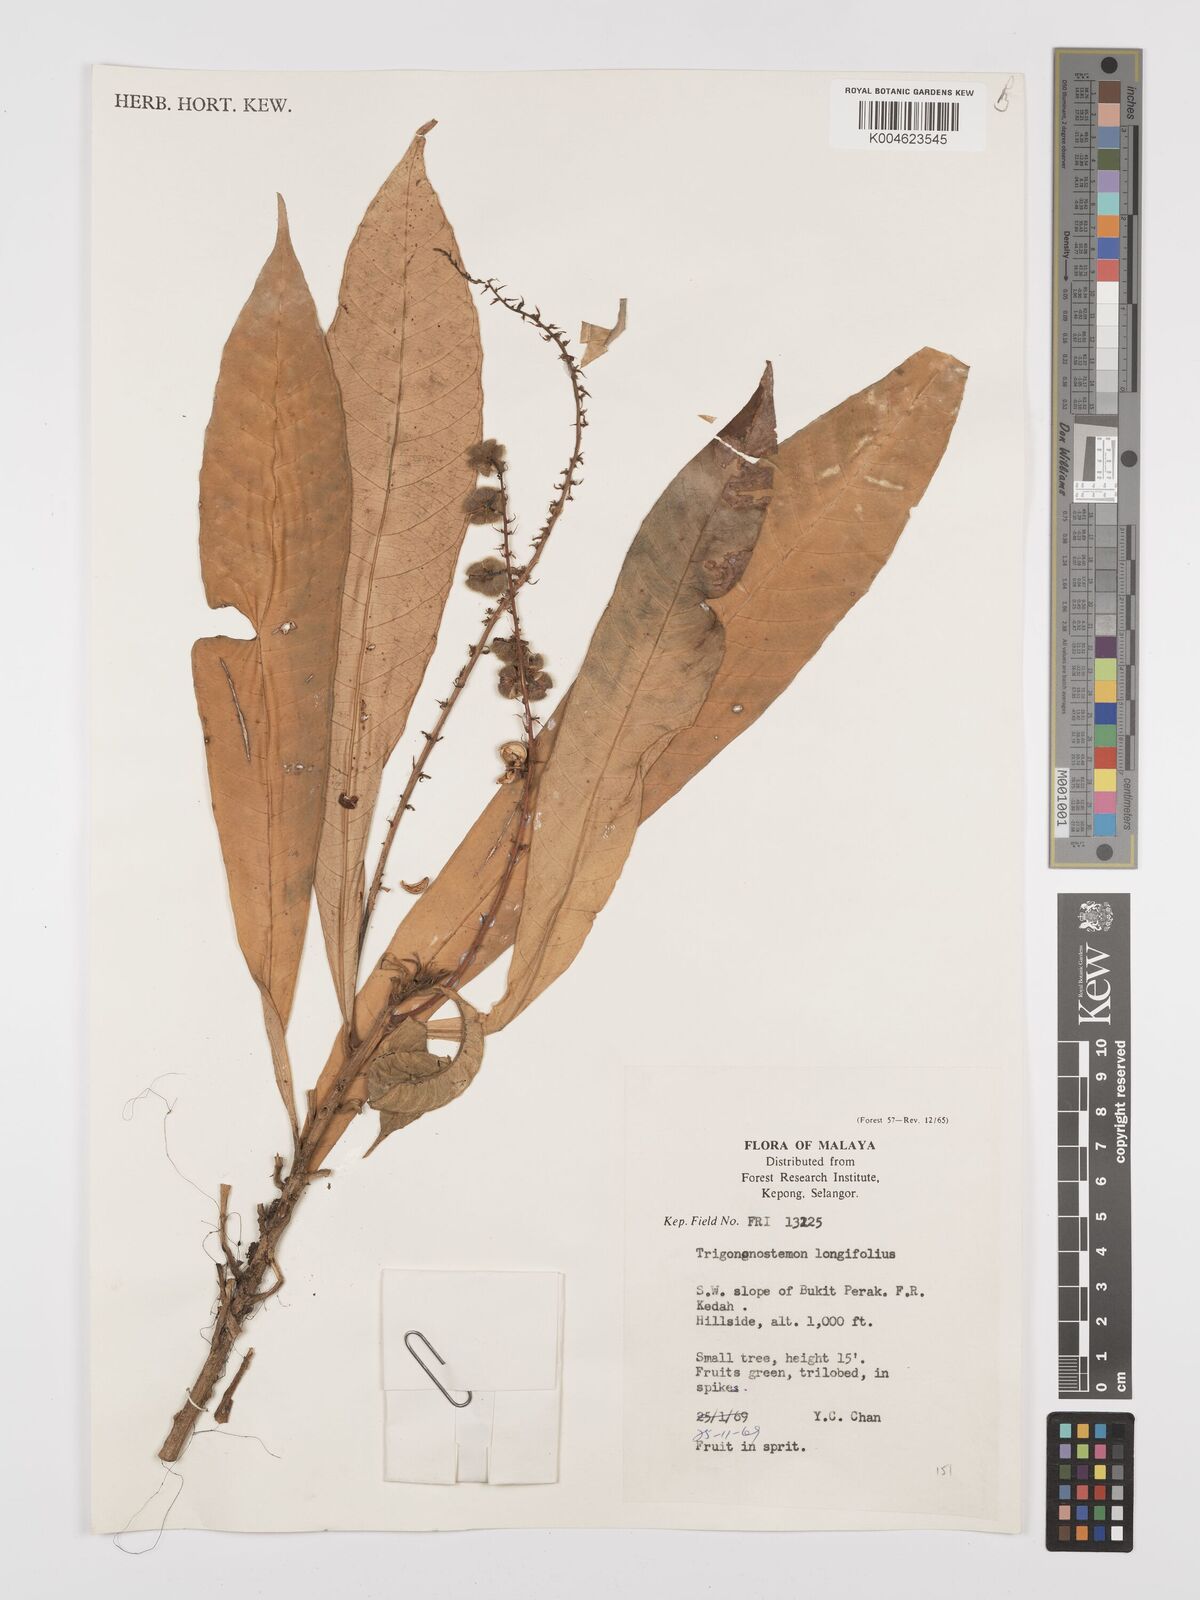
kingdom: Plantae
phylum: Tracheophyta
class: Magnoliopsida
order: Malpighiales
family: Euphorbiaceae
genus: Trigonostemon
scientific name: Trigonostemon longifolius
